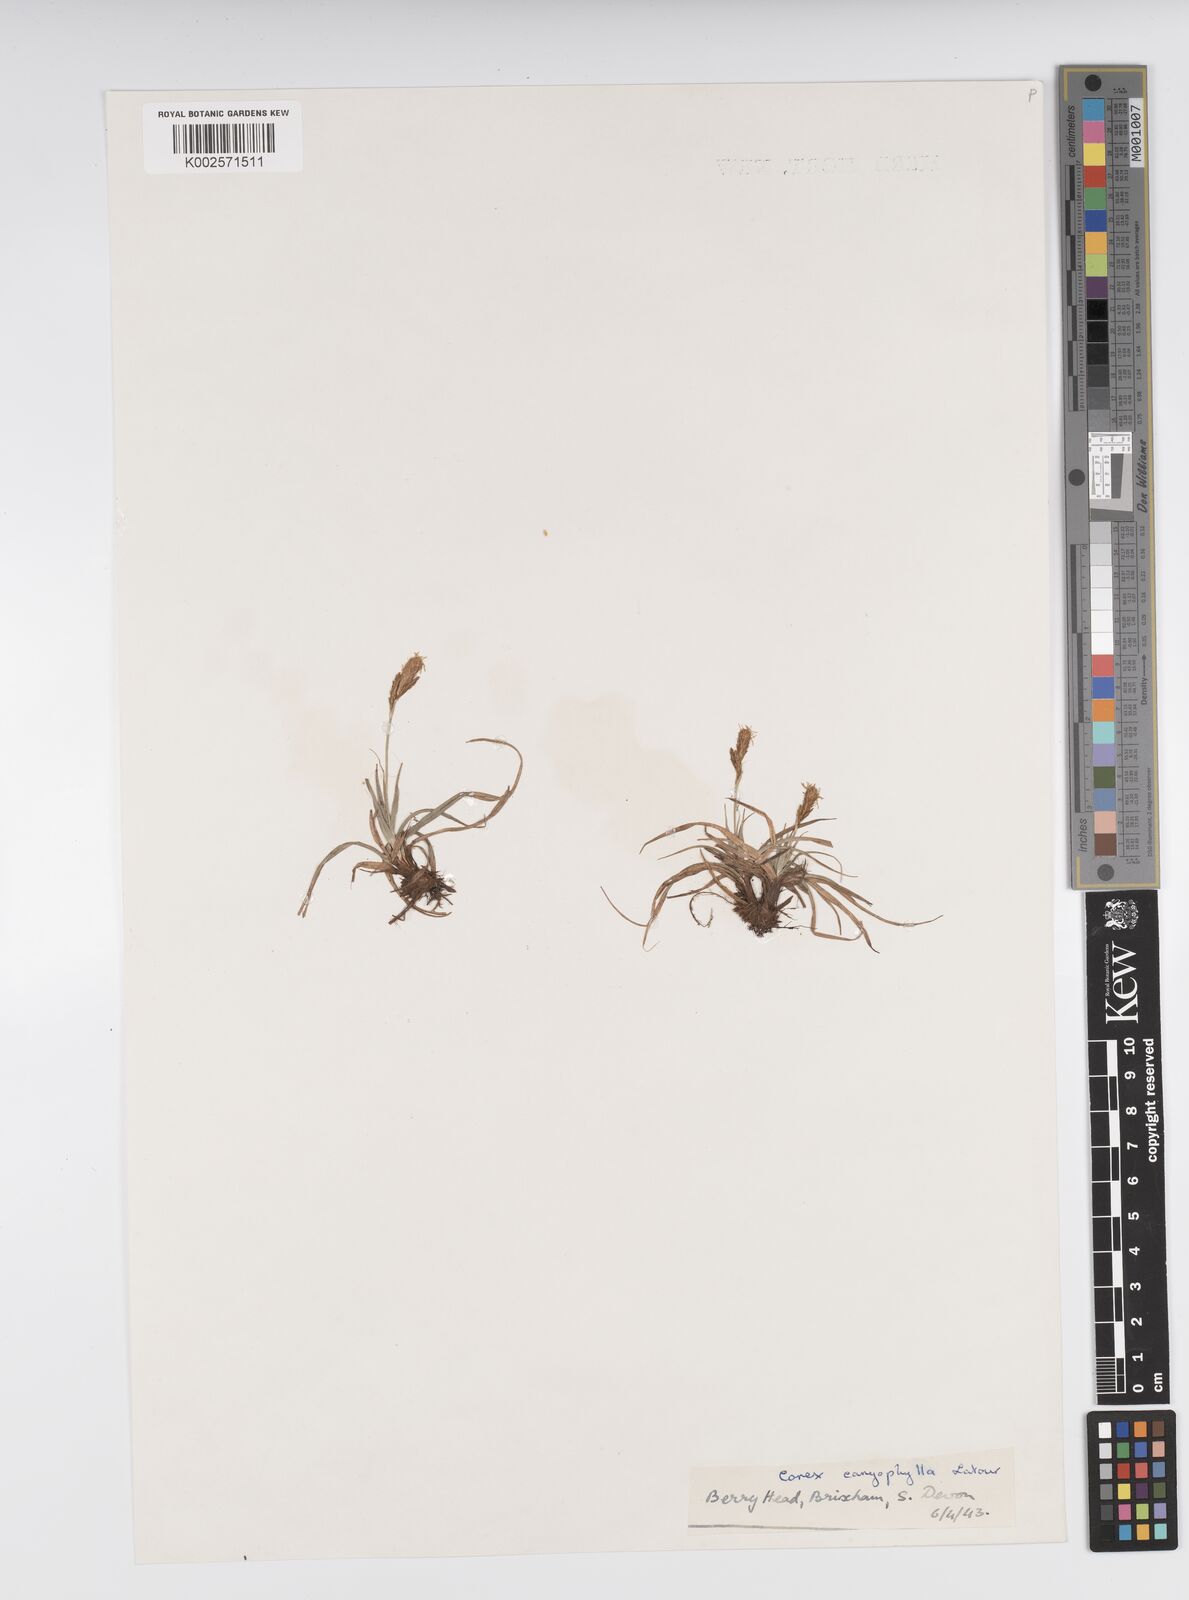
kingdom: Plantae
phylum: Tracheophyta
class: Liliopsida
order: Poales
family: Cyperaceae
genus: Carex
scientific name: Carex caryophyllea
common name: Spring sedge
